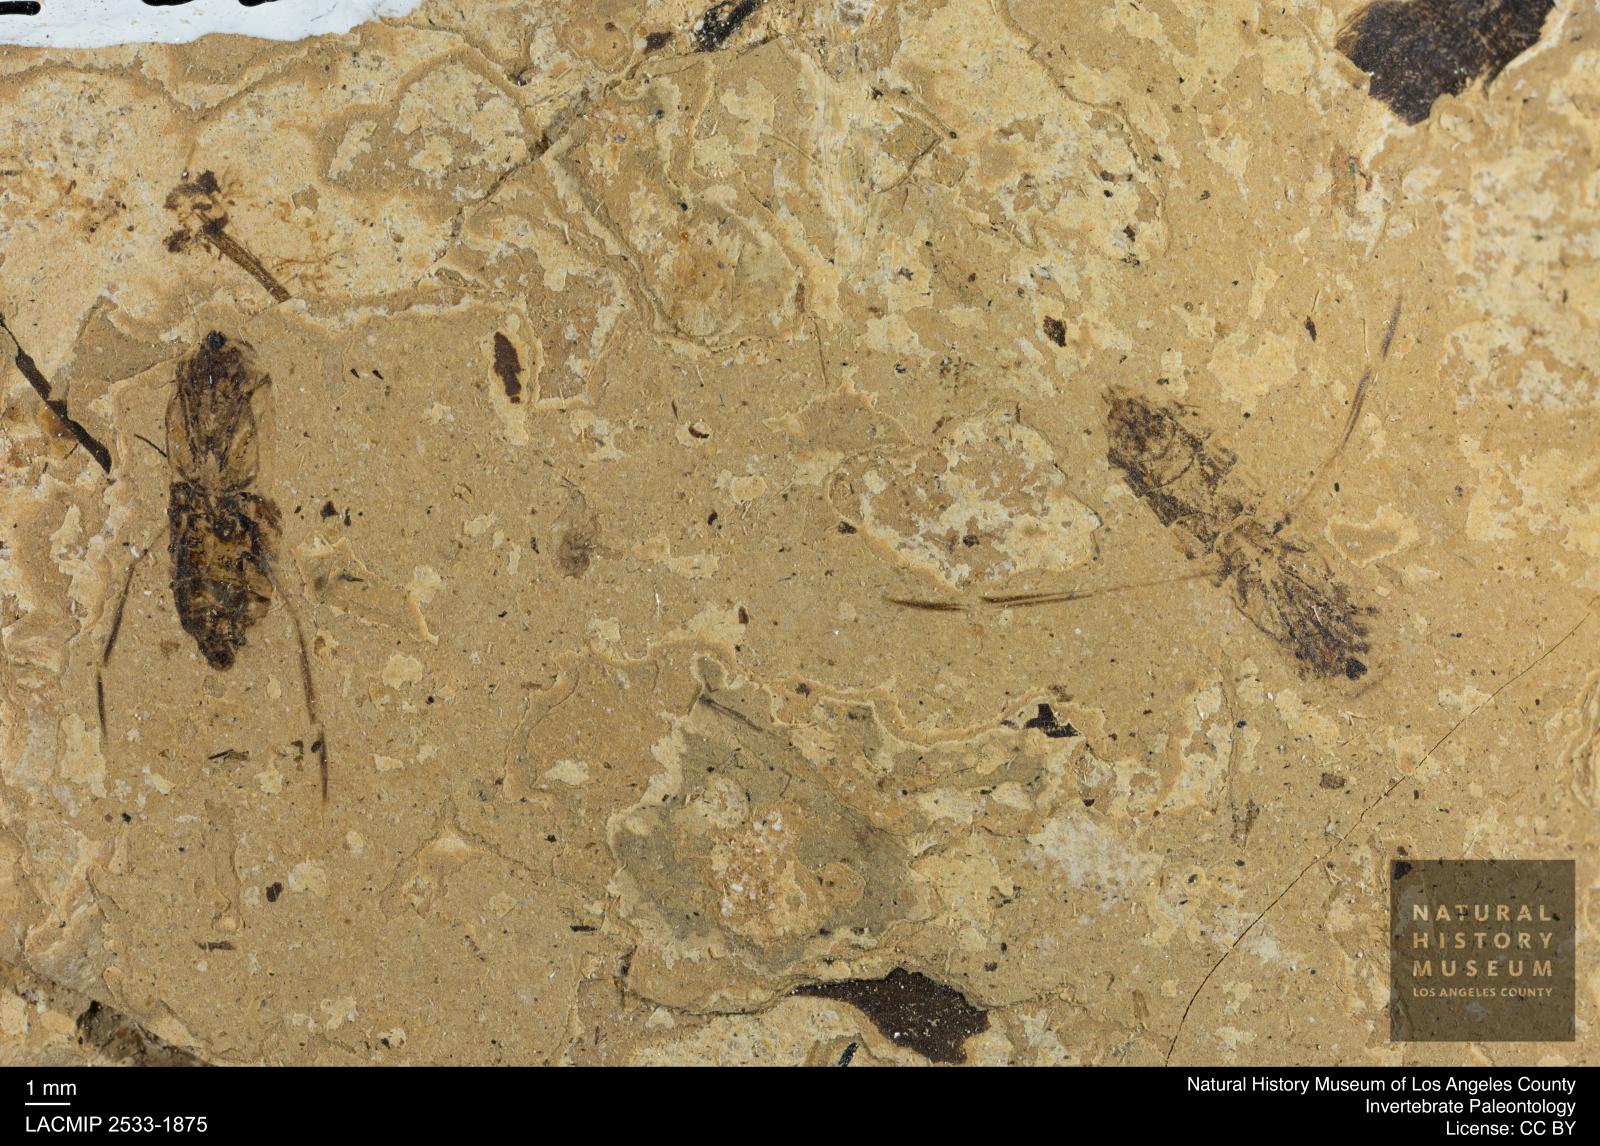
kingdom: Animalia
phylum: Arthropoda
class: Insecta
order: Hemiptera
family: Notonectidae
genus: Anisops
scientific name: Anisops Notonecta deichmuelleri
